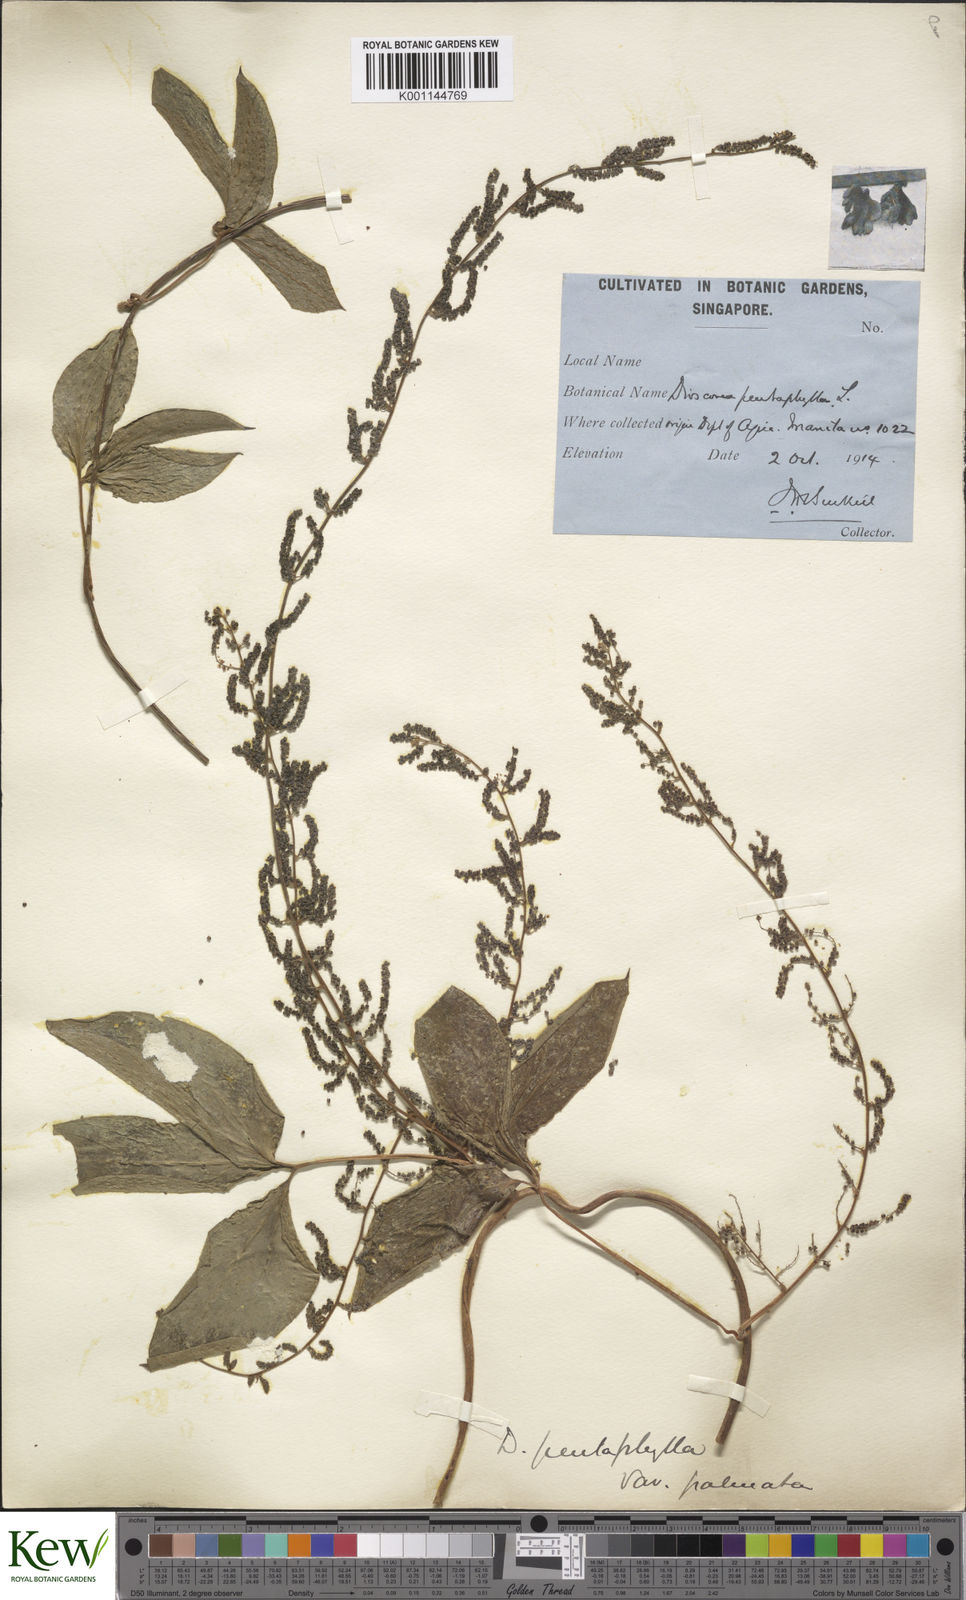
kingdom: Plantae
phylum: Tracheophyta
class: Liliopsida
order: Dioscoreales
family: Dioscoreaceae
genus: Dioscorea
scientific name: Dioscorea pentaphylla
